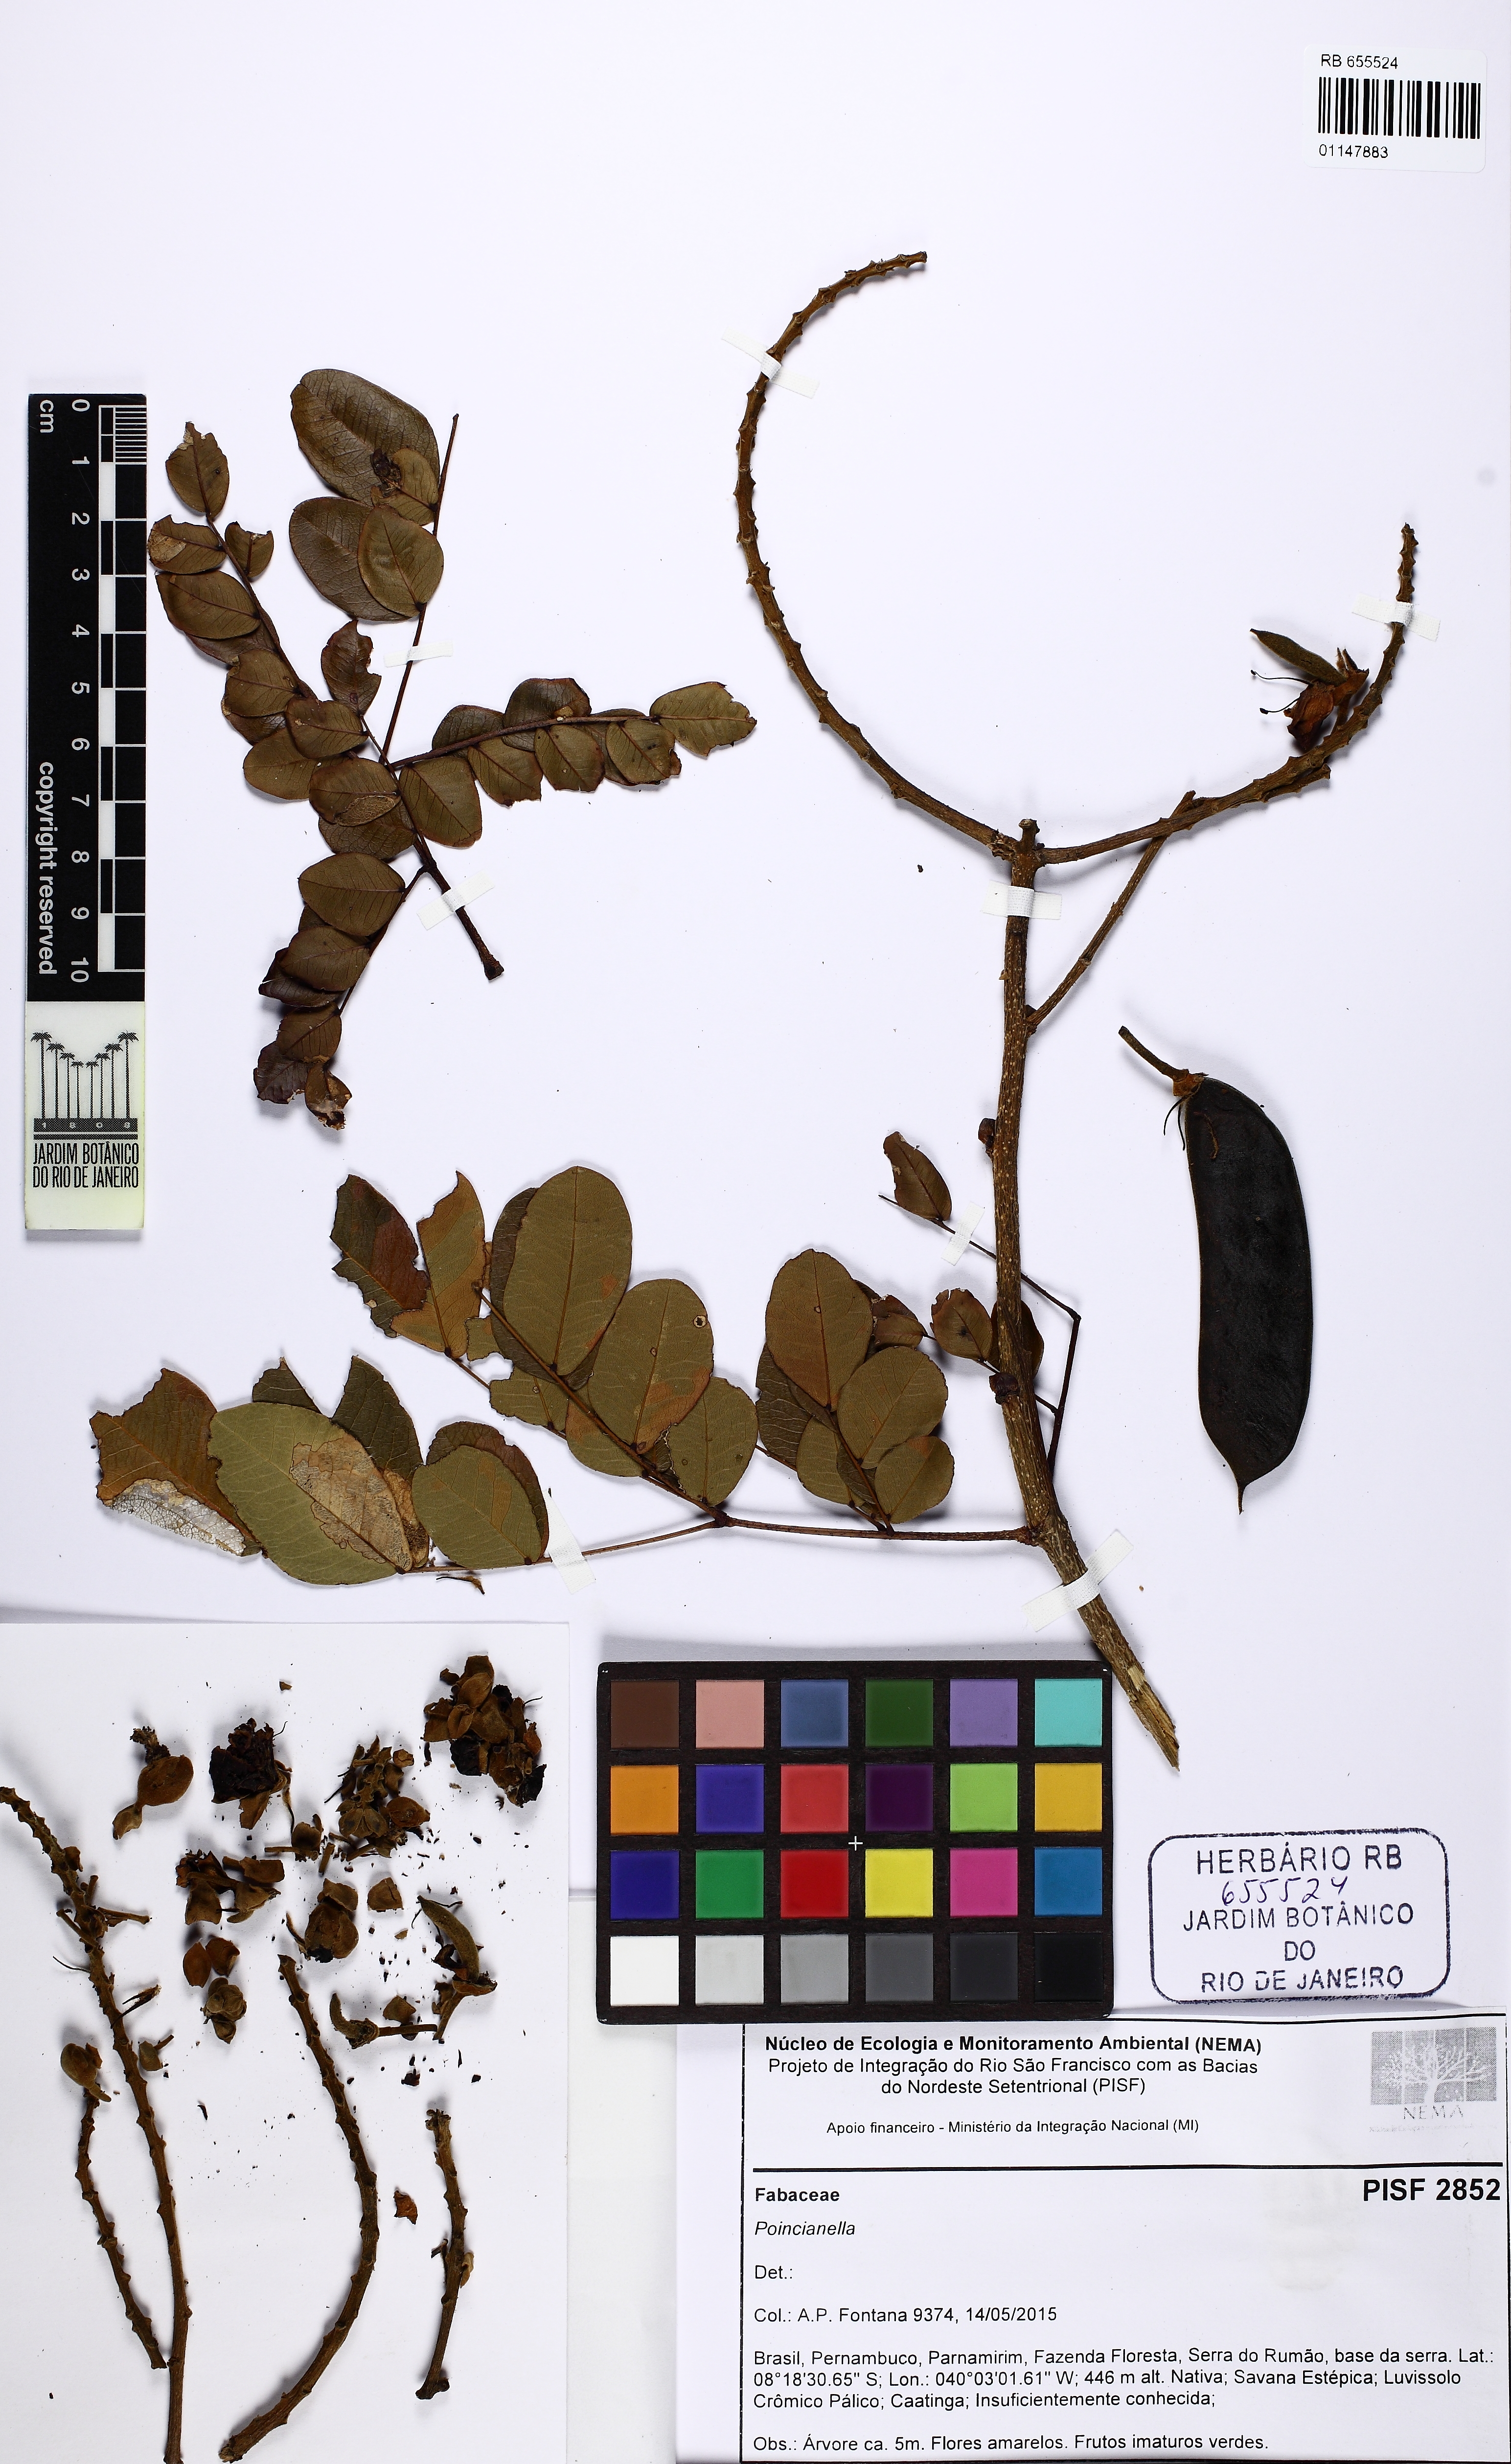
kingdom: Plantae
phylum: Tracheophyta
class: Magnoliopsida
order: Fabales
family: Fabaceae
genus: Erythrostemon
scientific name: Erythrostemon
